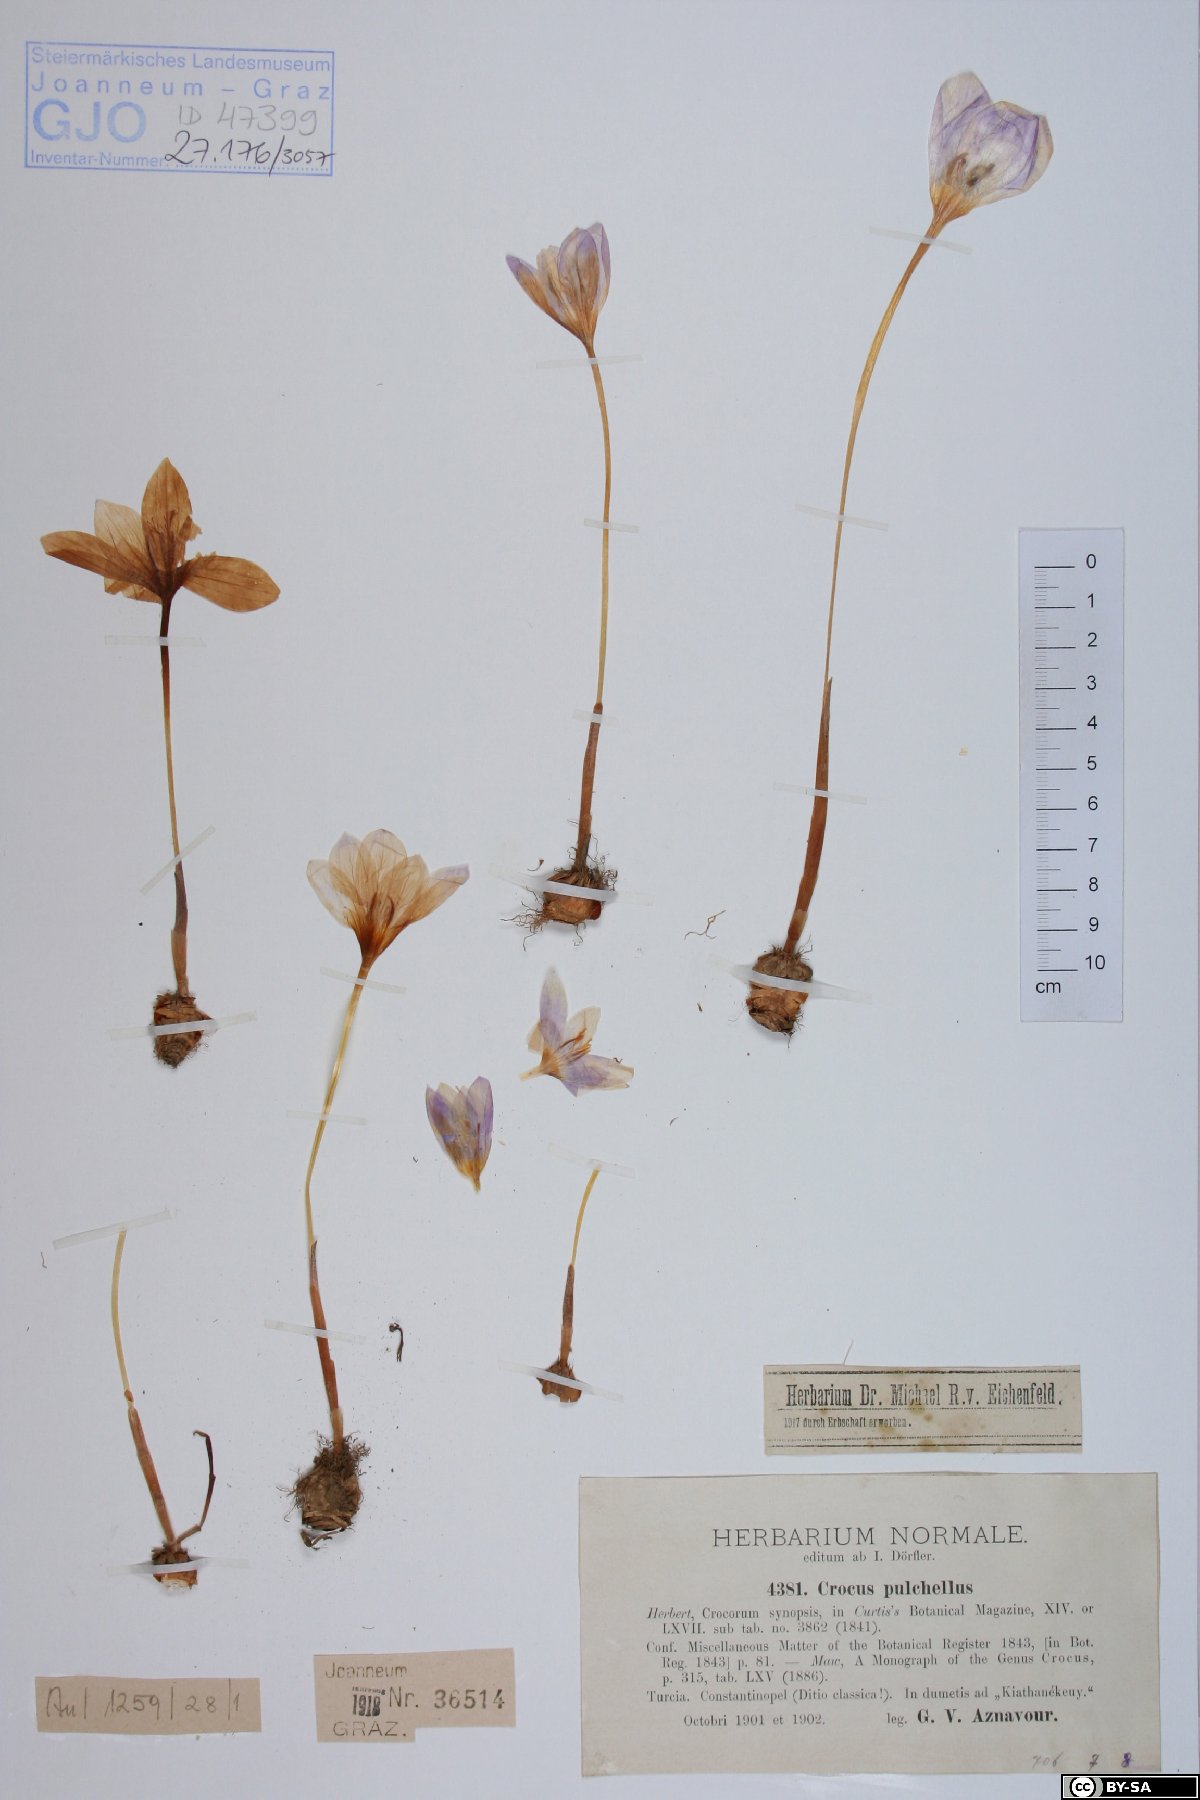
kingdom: Plantae
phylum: Tracheophyta
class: Liliopsida
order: Asparagales
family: Iridaceae
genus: Crocus
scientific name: Crocus pulchellus
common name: Hairy crocus
